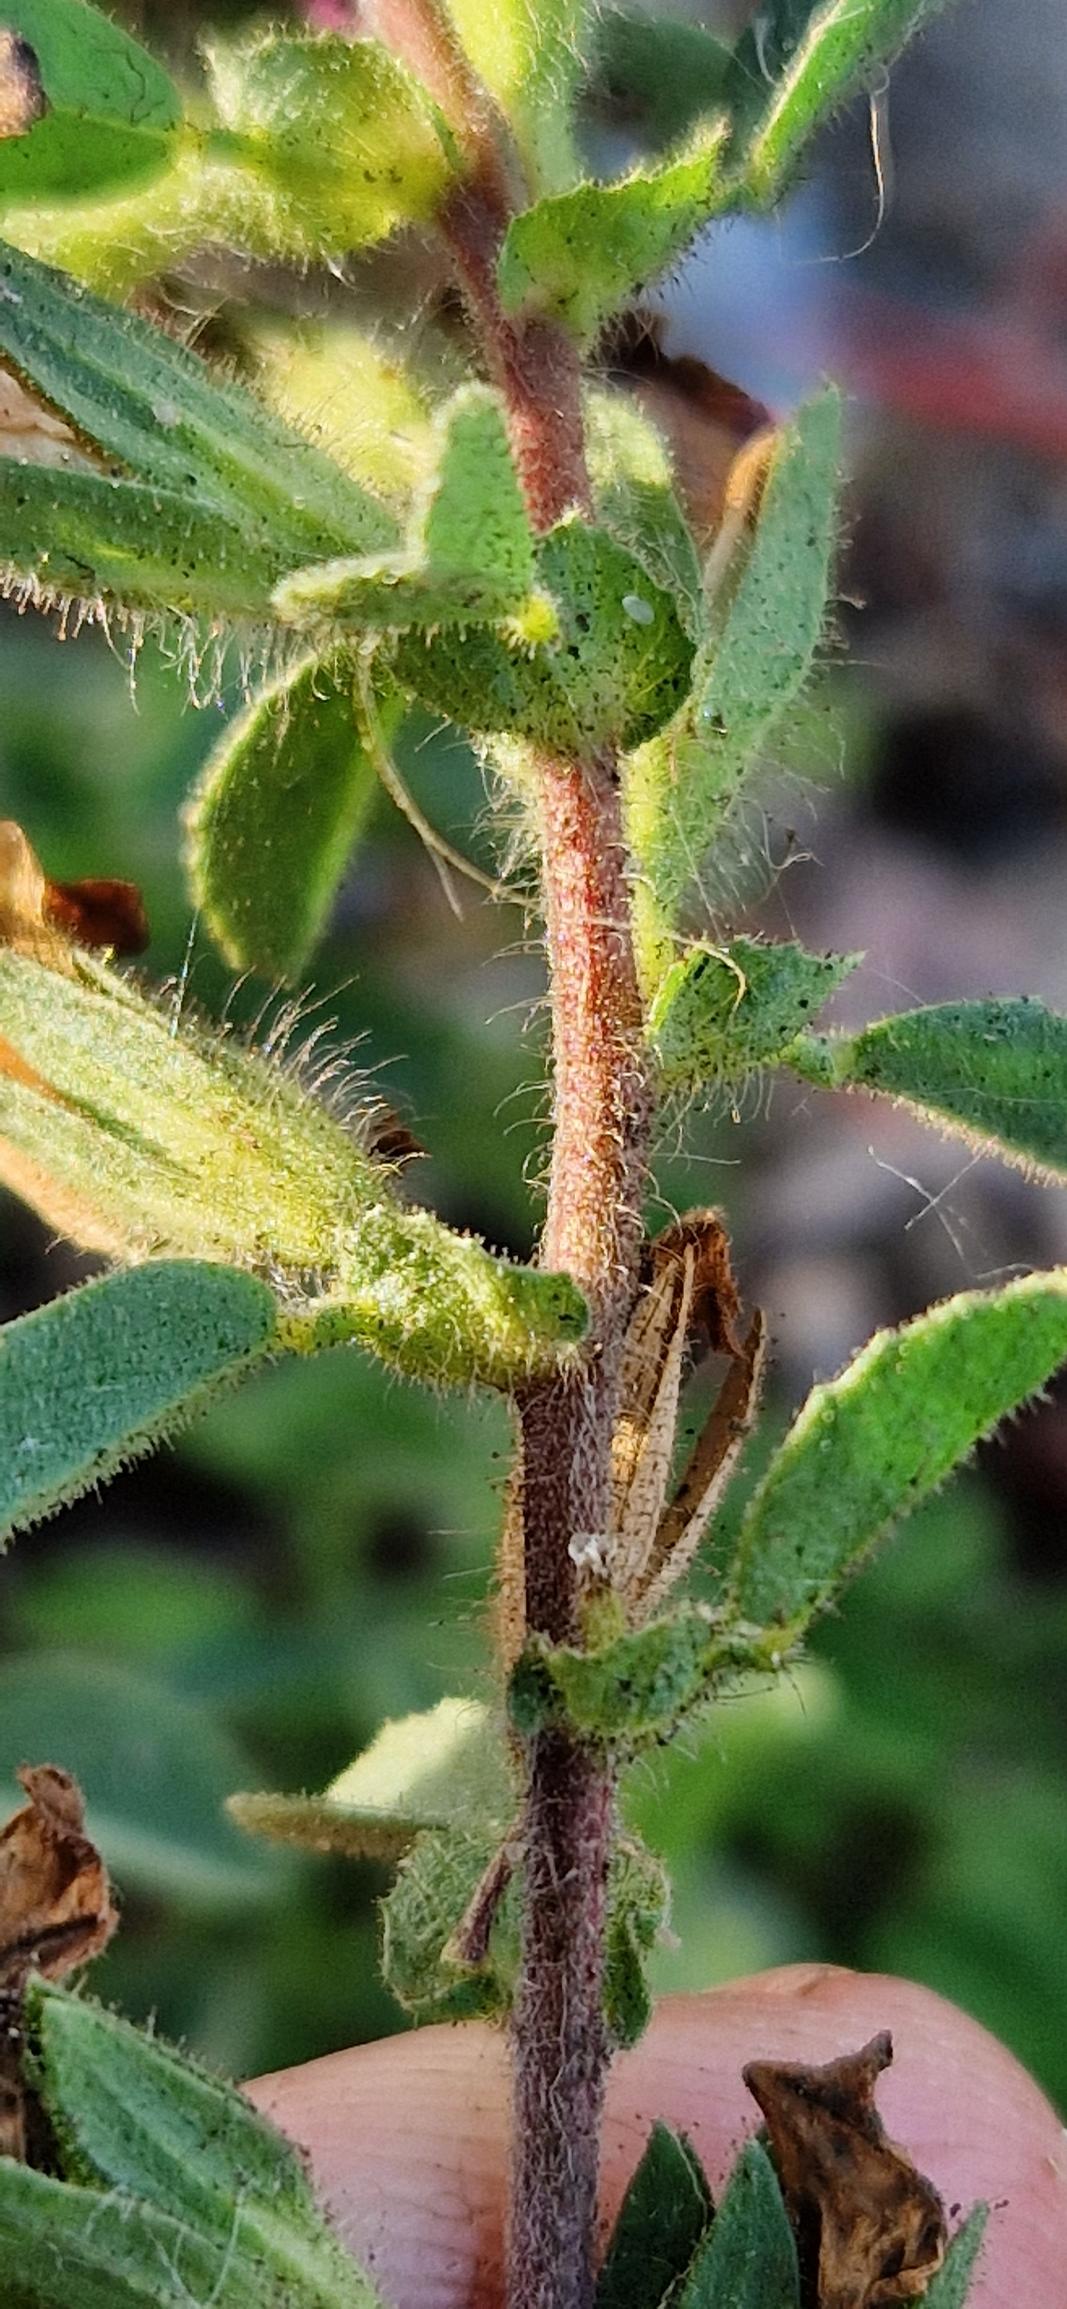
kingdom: Plantae
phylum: Tracheophyta
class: Magnoliopsida
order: Fabales
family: Fabaceae
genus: Ononis
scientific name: Ononis spinosa
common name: Mark-krageklo
